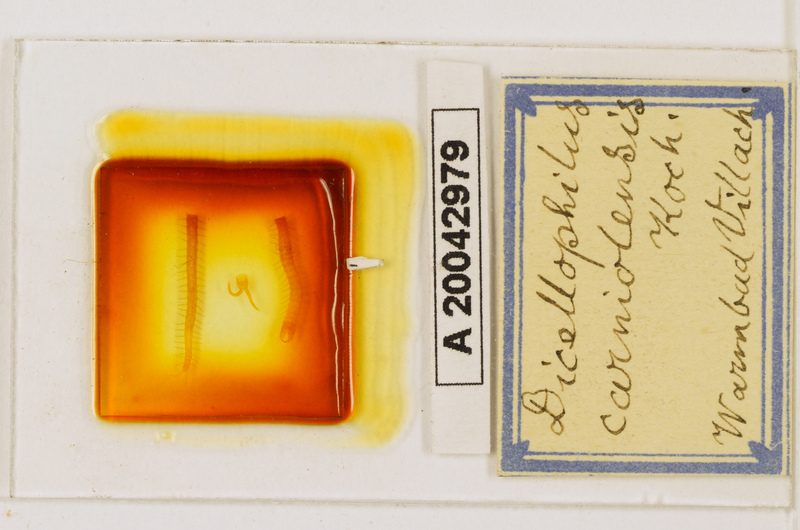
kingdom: Animalia
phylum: Arthropoda
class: Chilopoda
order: Geophilomorpha
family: Mecistocephalidae
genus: Dicellophilus
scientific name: Dicellophilus carniolensis
